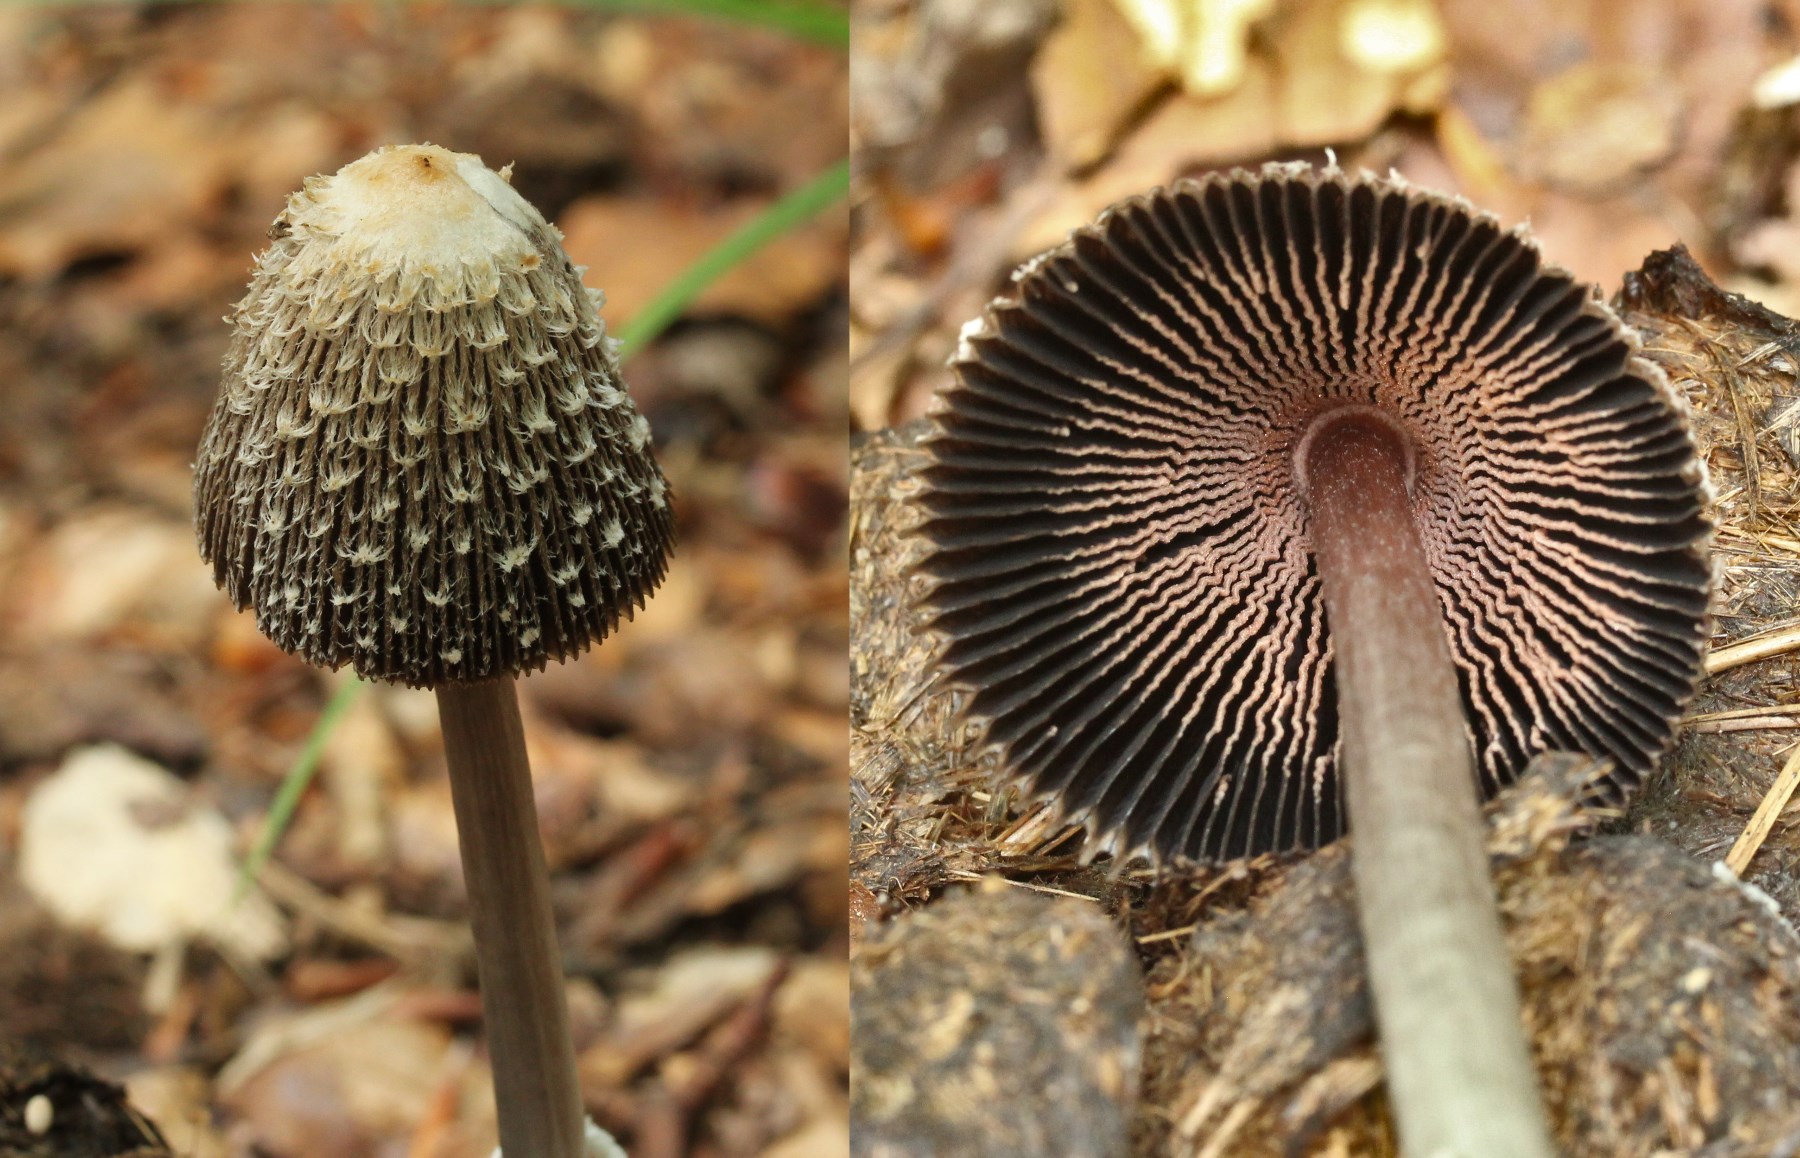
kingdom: Fungi
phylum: Basidiomycota
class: Agaricomycetes
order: Agaricales
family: Agaricaceae
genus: Coprinus
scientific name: Coprinus sterquilinus
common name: møg-parykhat
